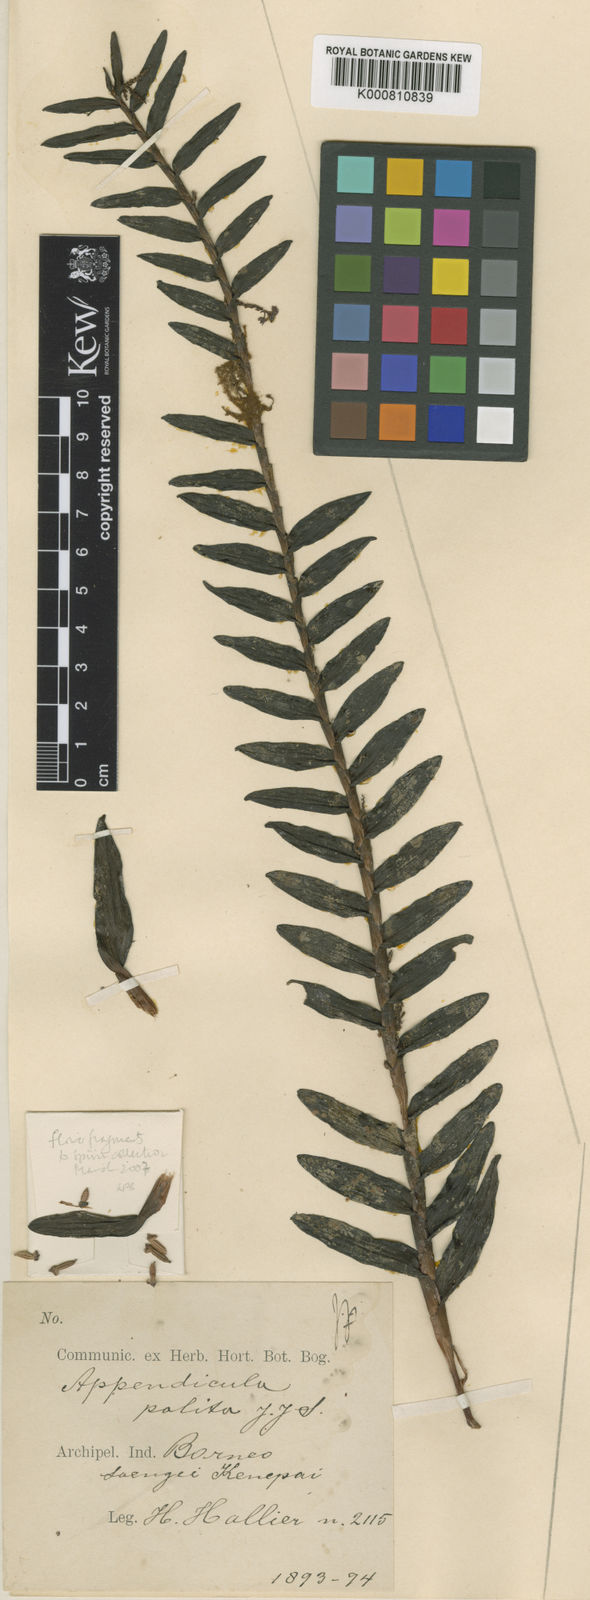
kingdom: Plantae
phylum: Tracheophyta
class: Liliopsida
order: Asparagales
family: Orchidaceae
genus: Appendicula
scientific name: Appendicula polita
